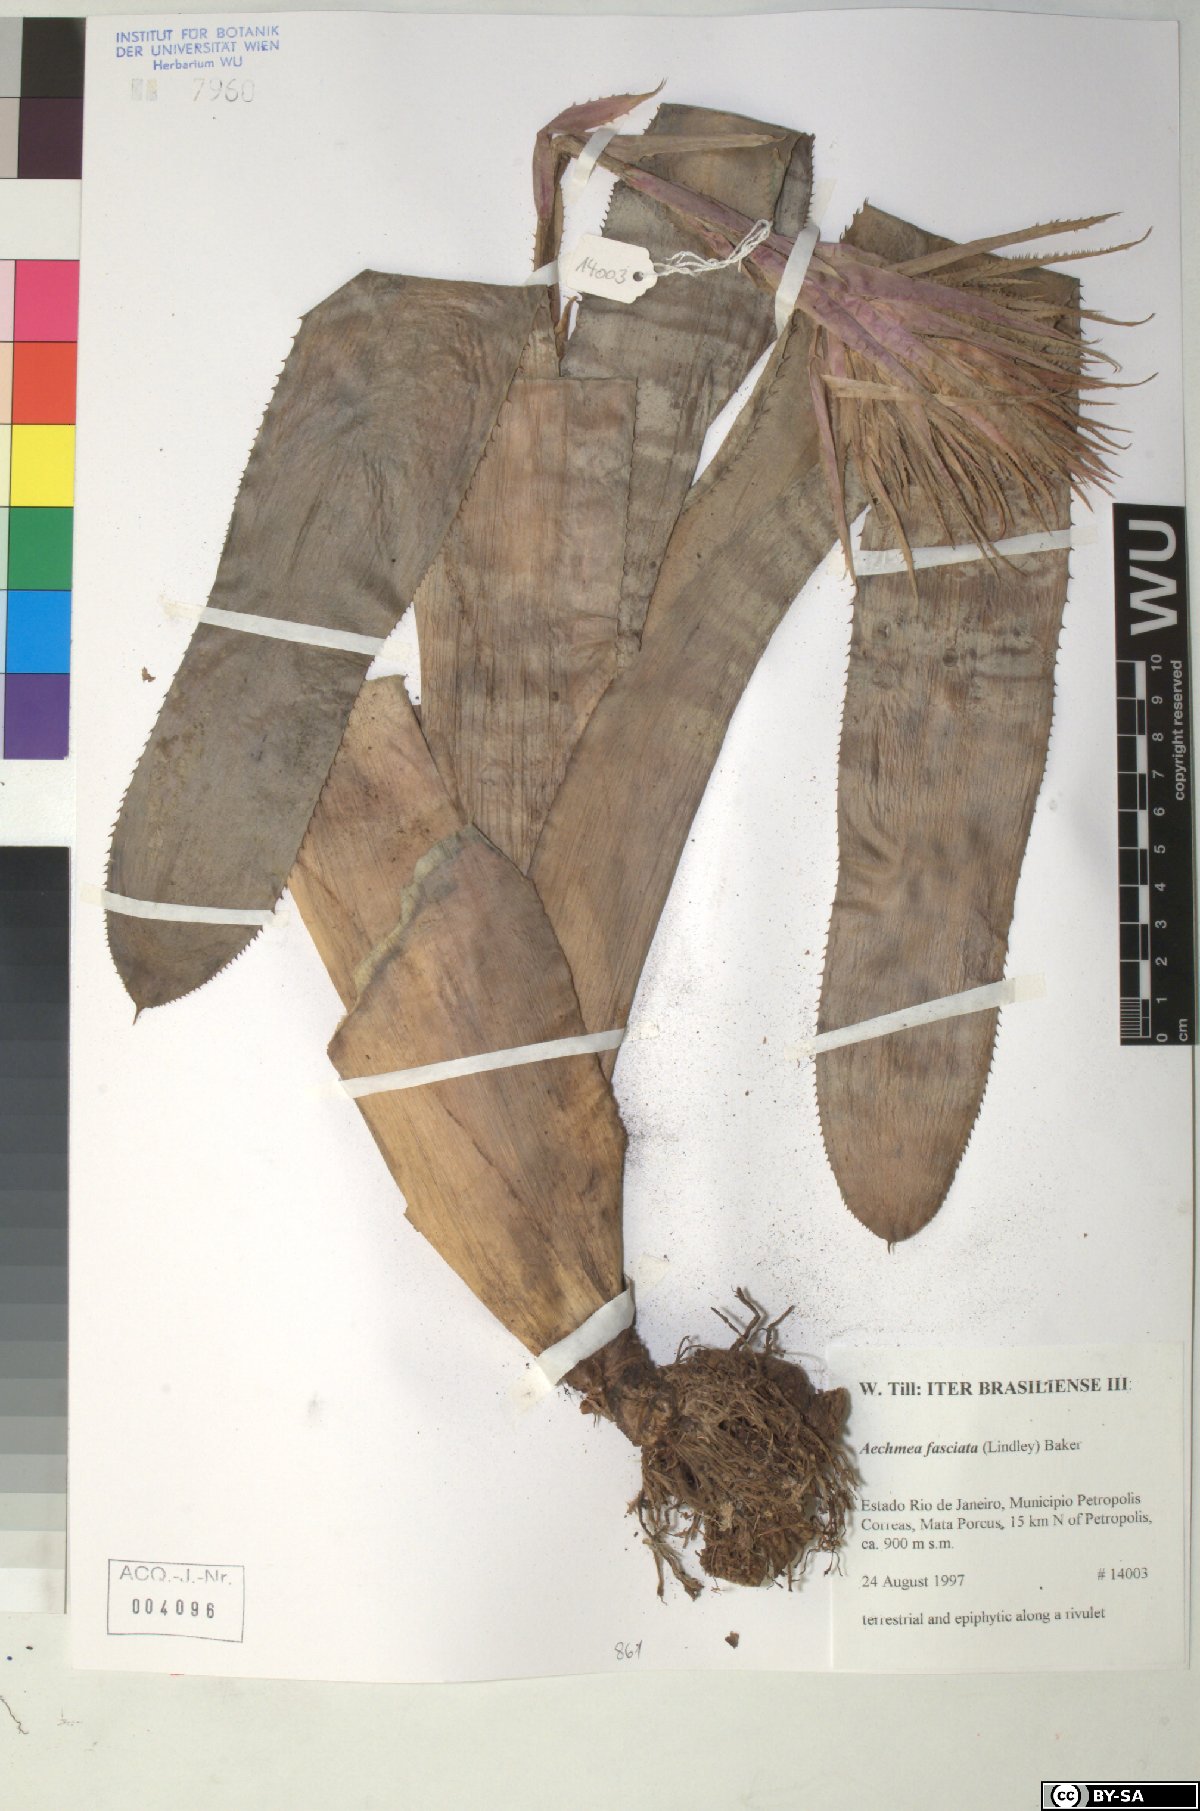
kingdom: Plantae
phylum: Tracheophyta
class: Liliopsida
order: Poales
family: Bromeliaceae
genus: Aechmea
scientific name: Aechmea fasciata
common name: Urnplant
